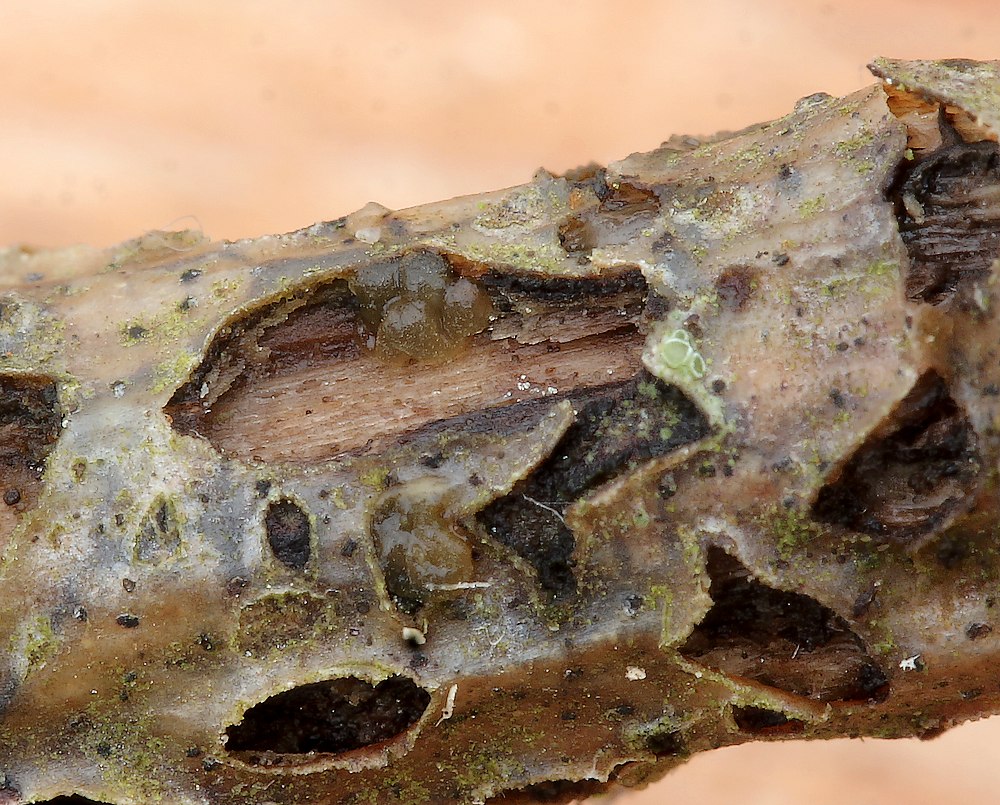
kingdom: Fungi
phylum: Basidiomycota
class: Dacrymycetes
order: Dacrymycetales
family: Dacrymycetaceae
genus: Dacrymyces
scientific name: Dacrymyces
